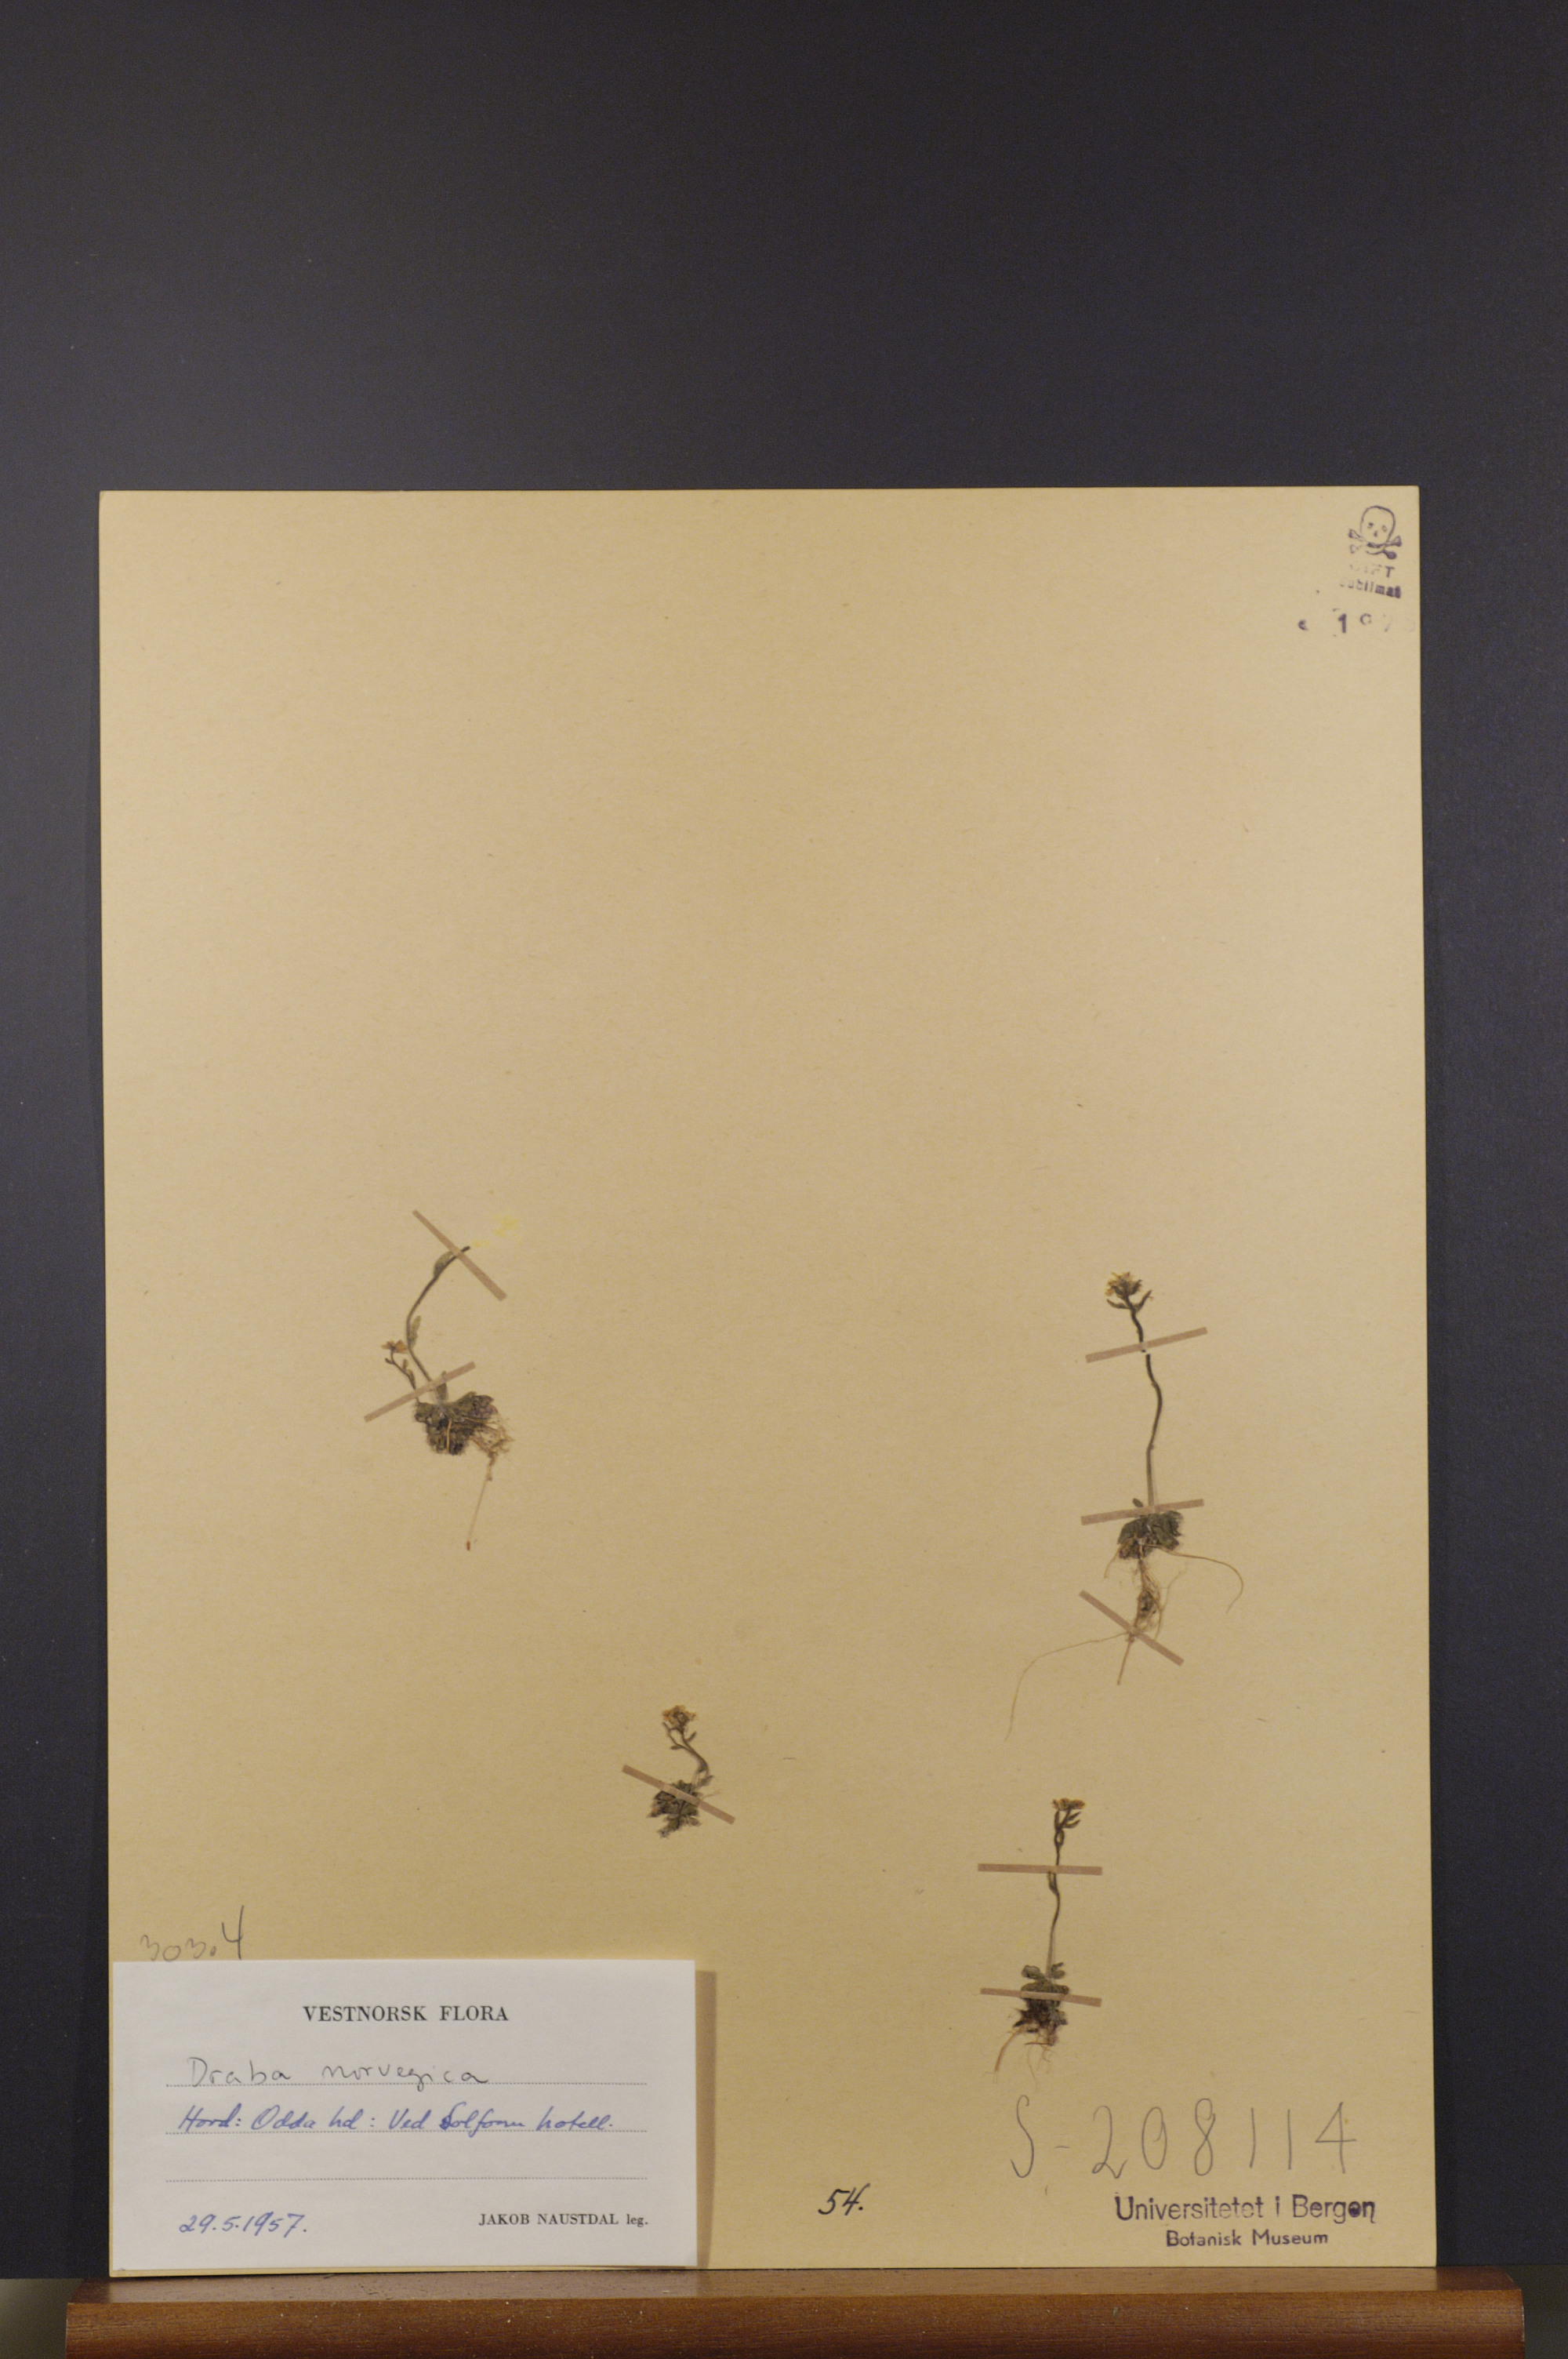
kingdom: Plantae
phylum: Tracheophyta
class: Magnoliopsida
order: Brassicales
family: Brassicaceae
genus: Draba
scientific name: Draba norvegica
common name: Rock whitlowgrass
